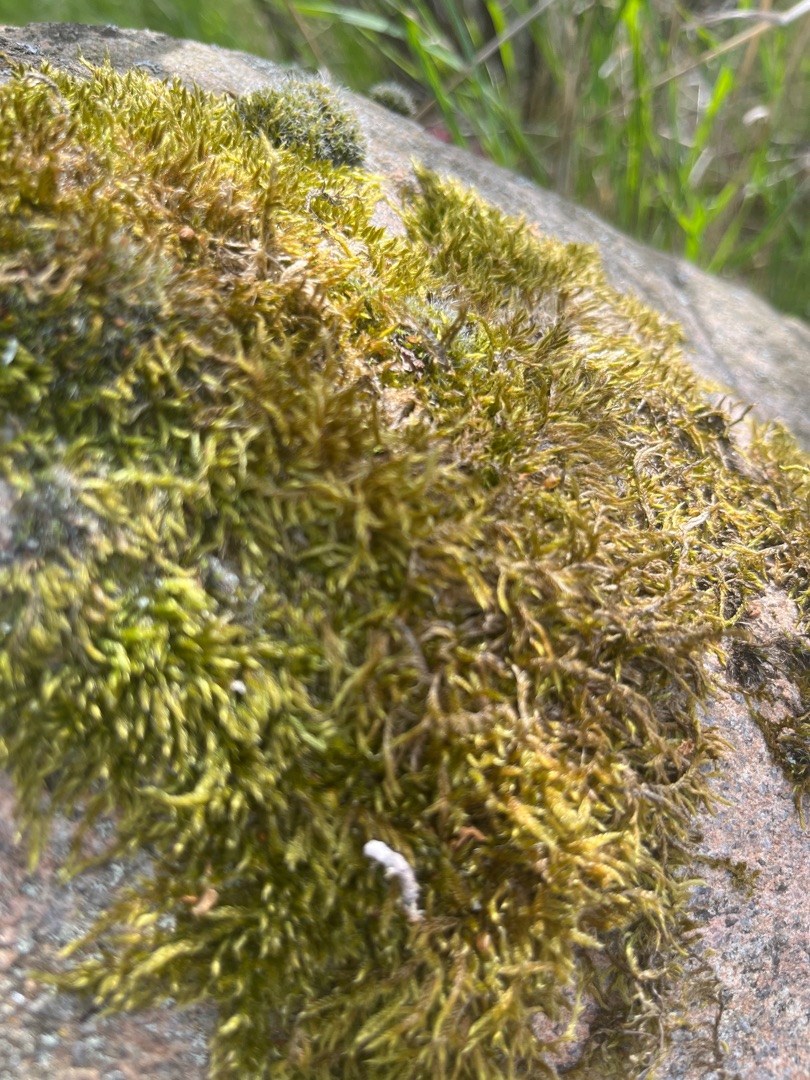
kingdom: Plantae
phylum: Bryophyta
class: Bryopsida
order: Hypnales
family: Hypnaceae
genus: Hypnum
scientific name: Hypnum cupressiforme
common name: Almindelig cypresmos
